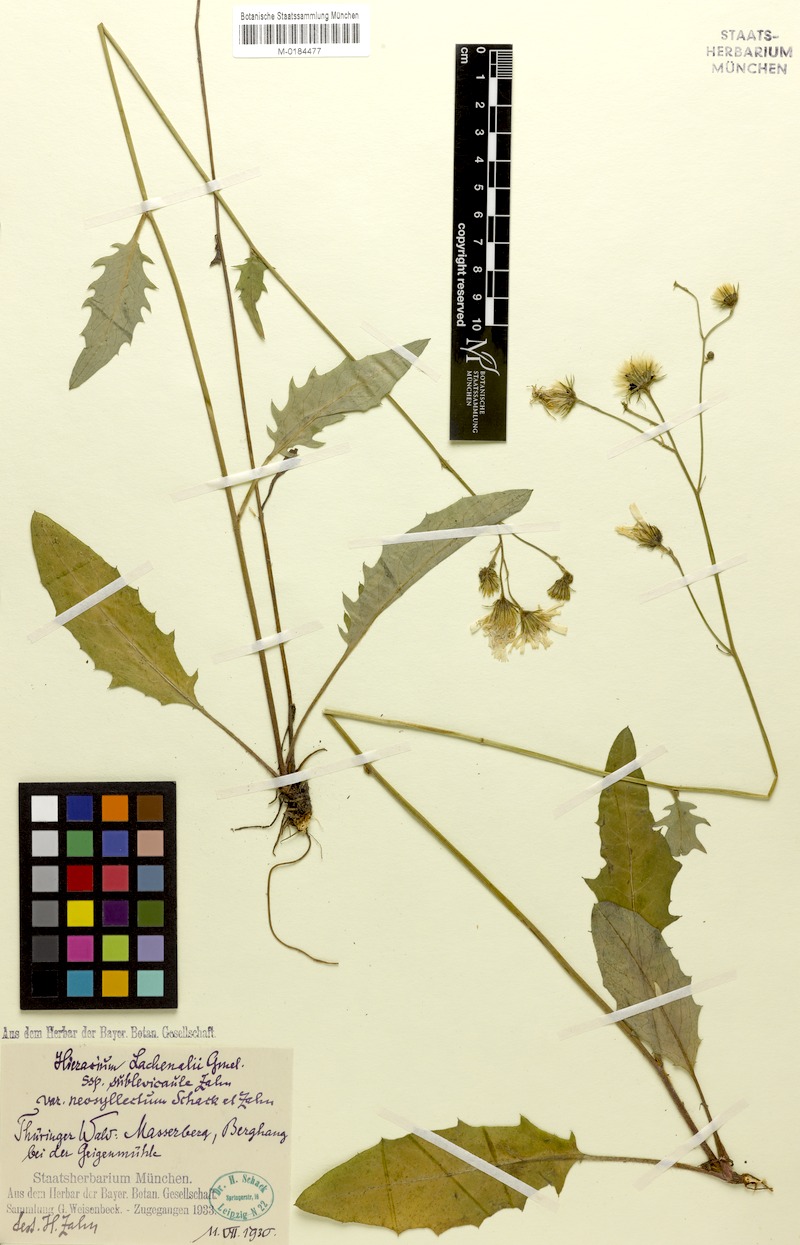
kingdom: Plantae
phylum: Tracheophyta
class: Magnoliopsida
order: Asterales
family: Asteraceae
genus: Hieracium
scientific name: Hieracium lachenalii
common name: Common hawkweed
